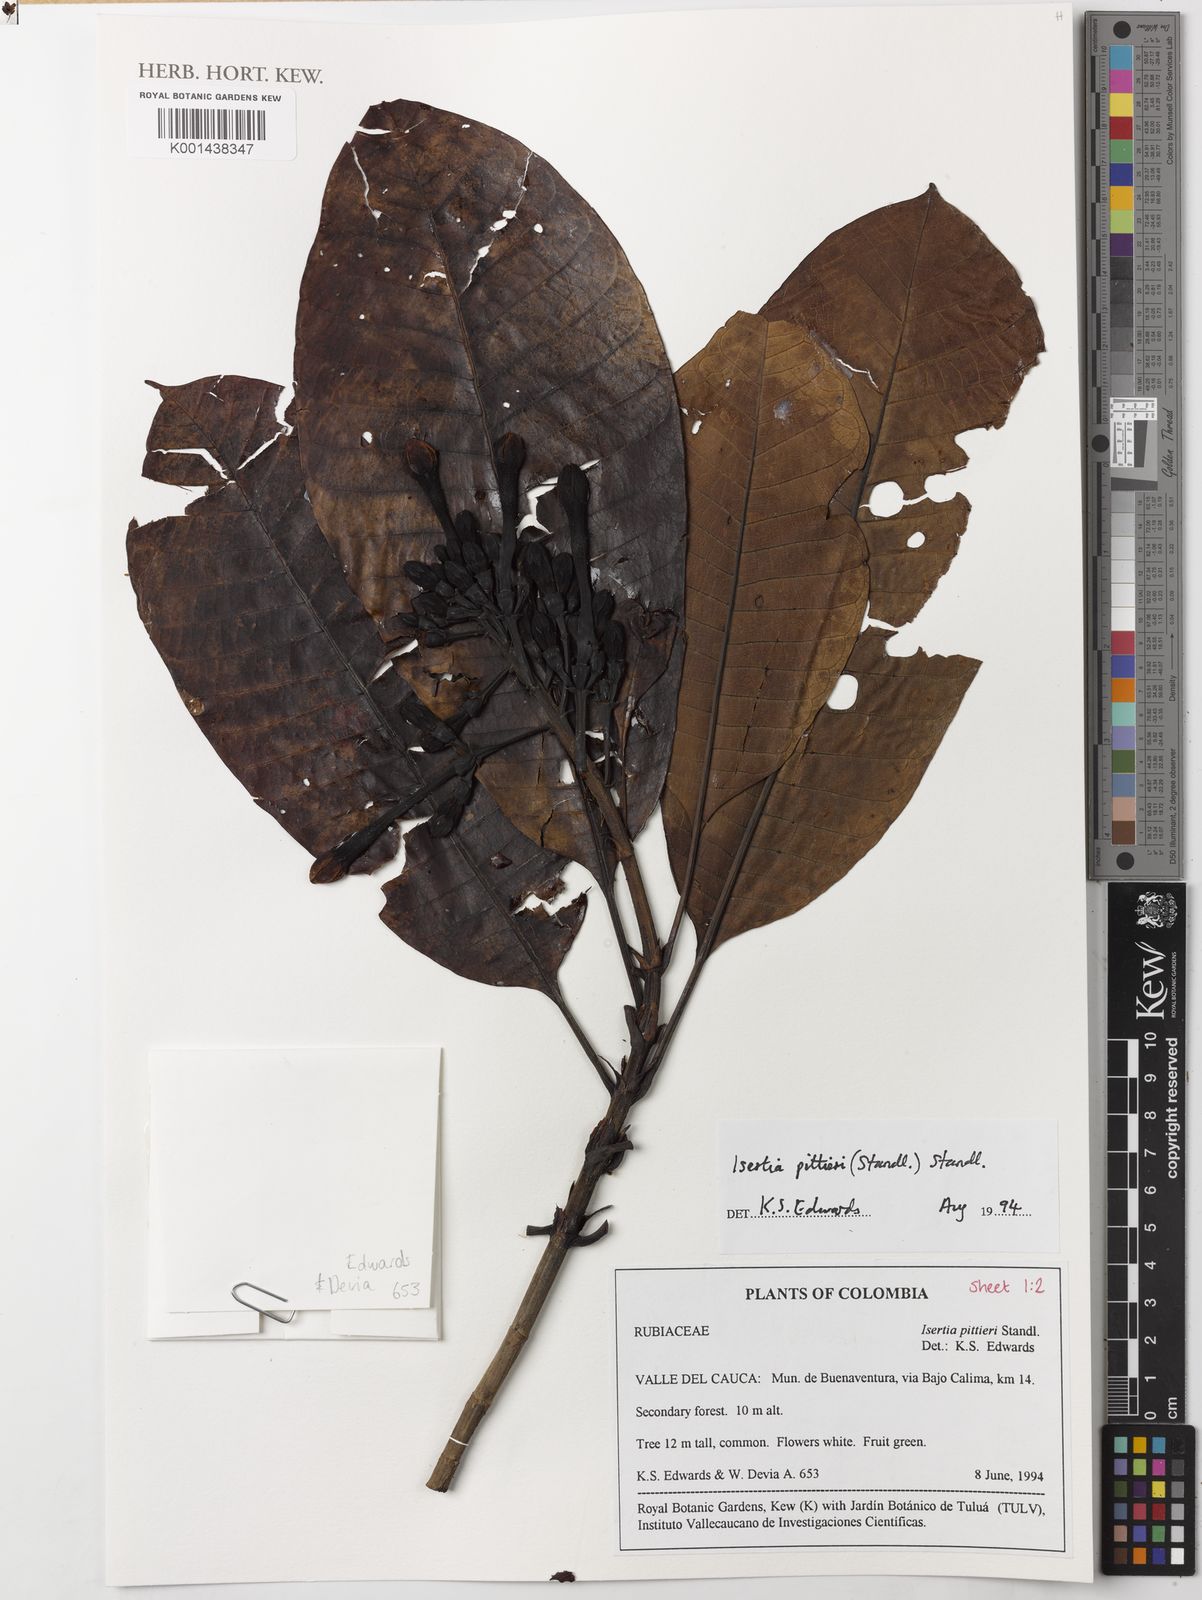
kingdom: Plantae
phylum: Tracheophyta
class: Magnoliopsida
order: Gentianales
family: Rubiaceae
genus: Isertia
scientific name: Isertia pittieri
